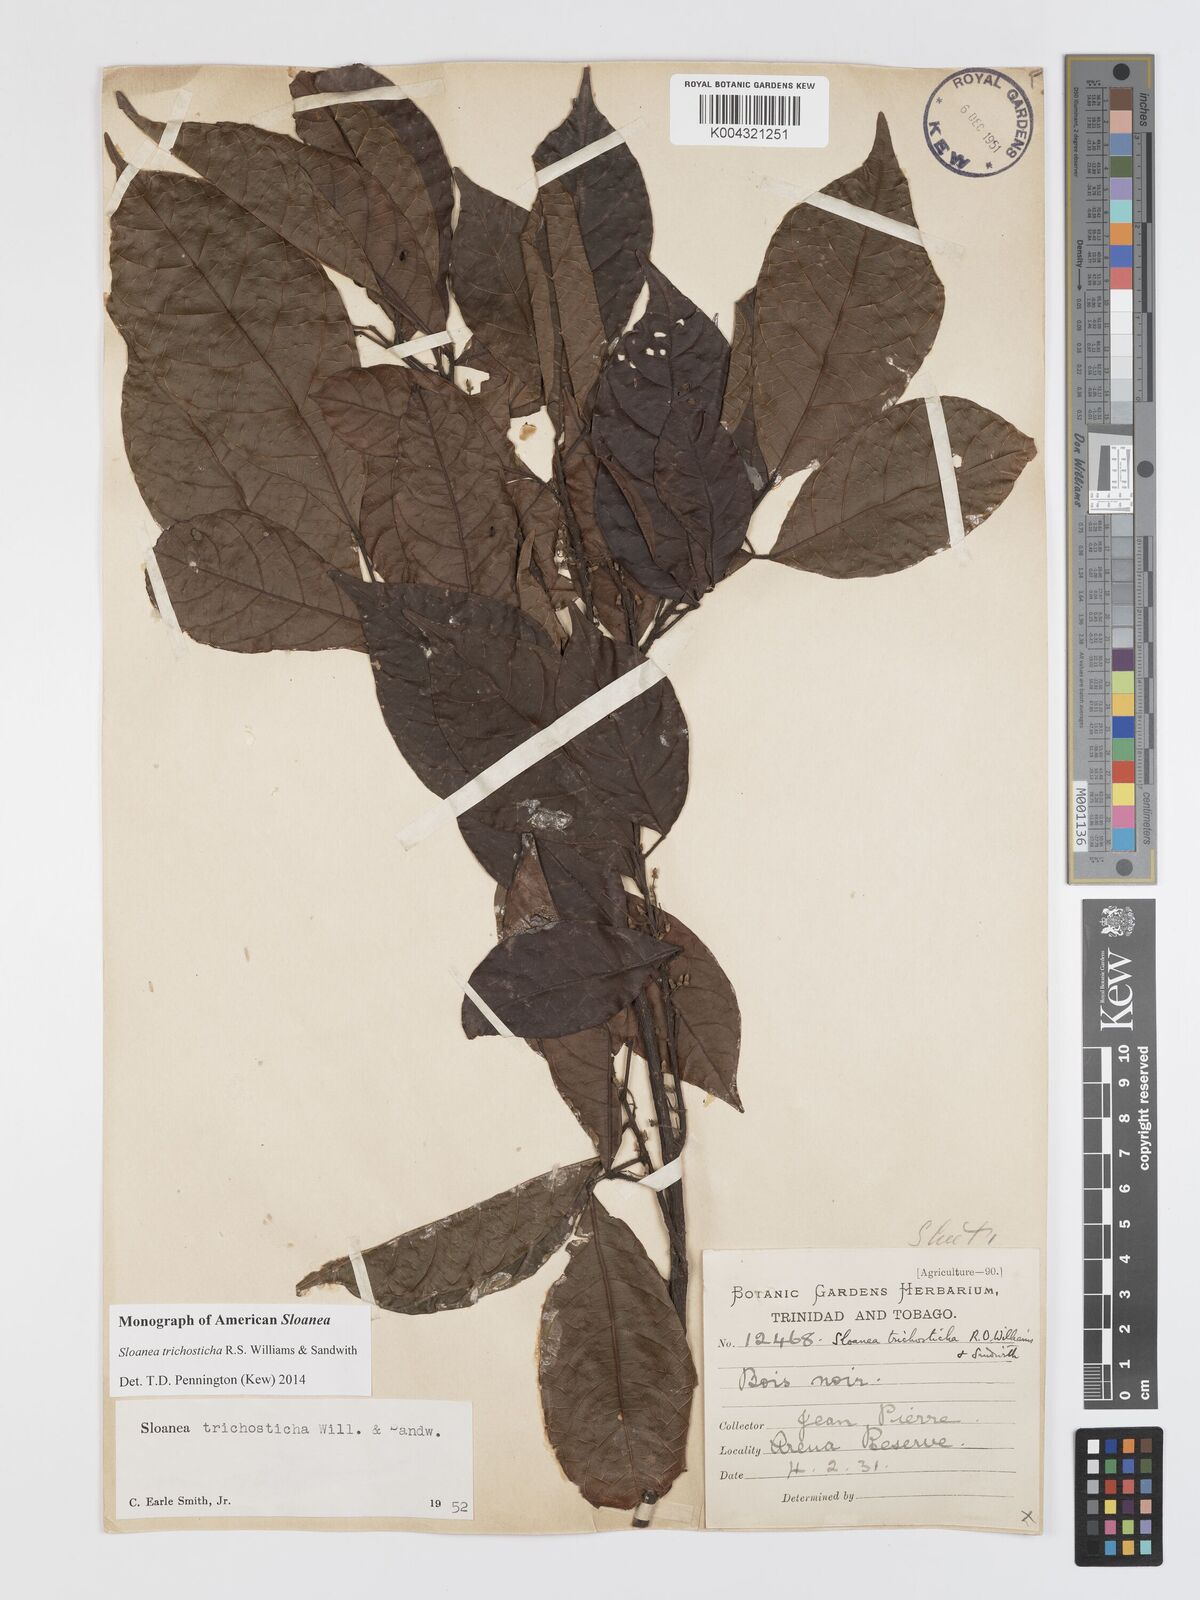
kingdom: Plantae
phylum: Tracheophyta
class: Magnoliopsida
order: Oxalidales
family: Elaeocarpaceae
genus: Sloanea
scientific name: Sloanea trichosticha
